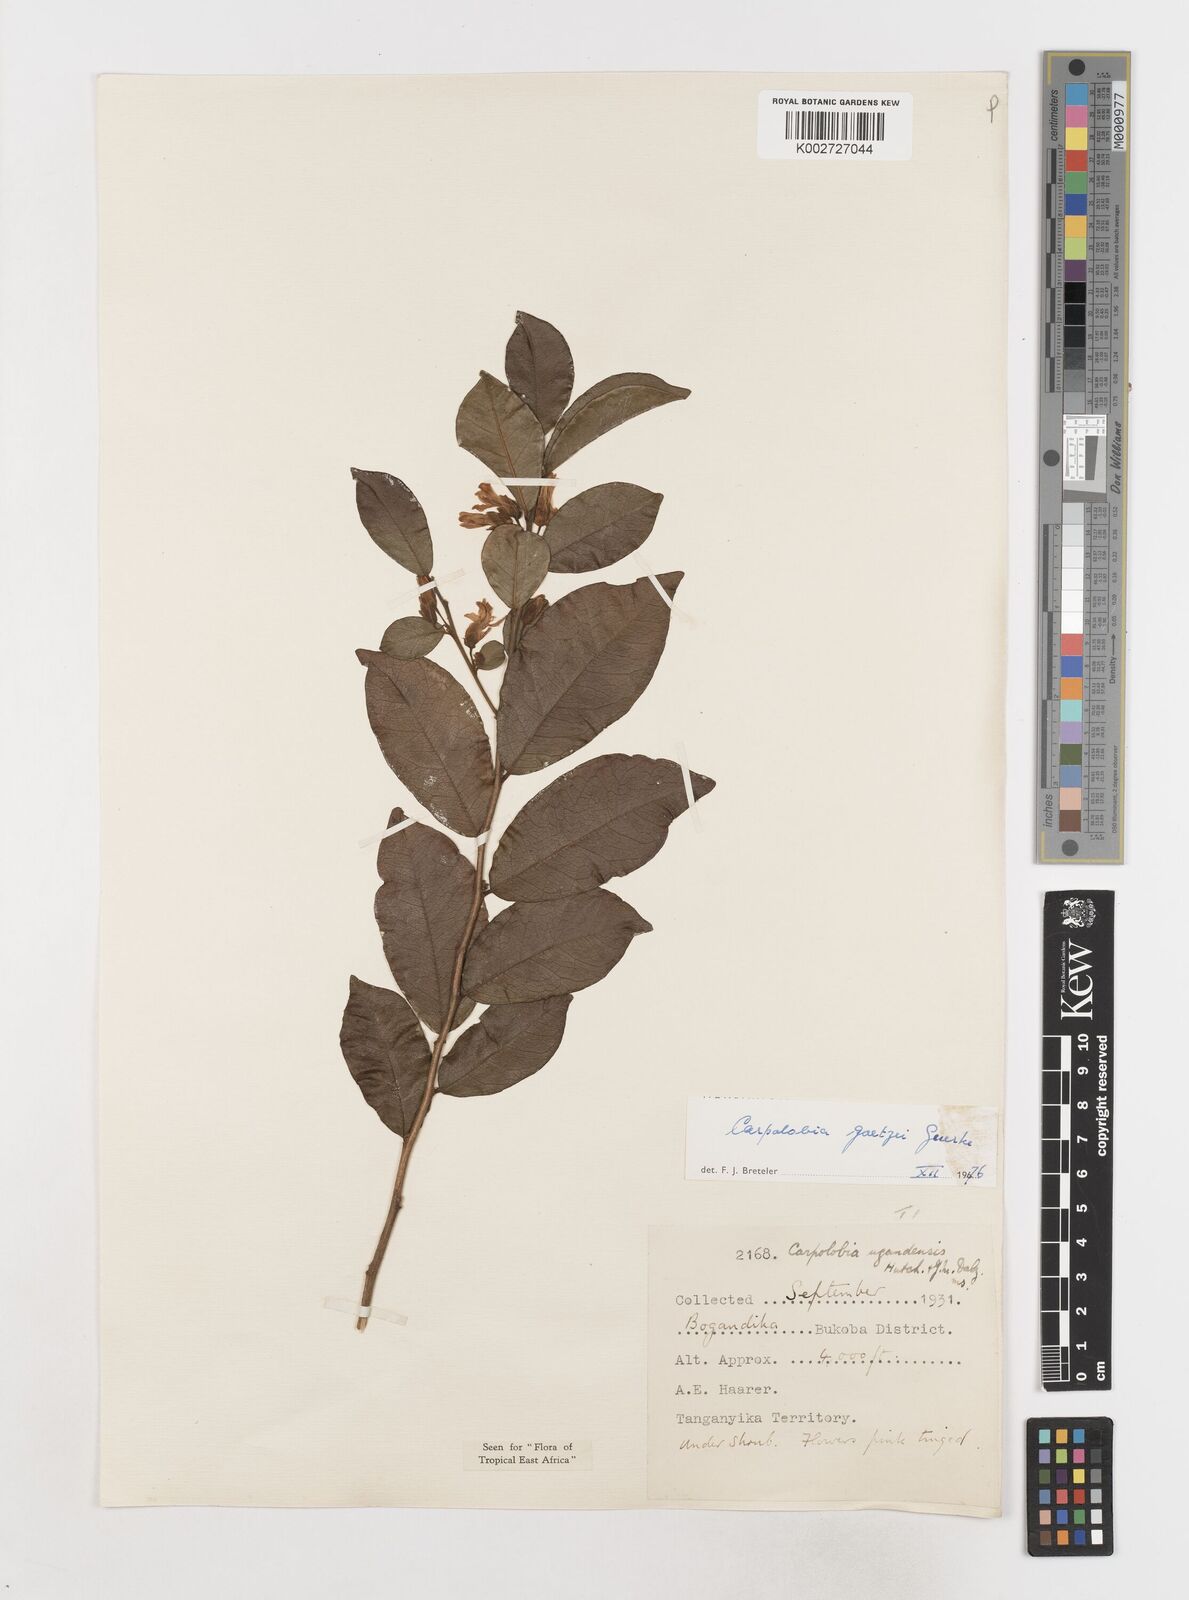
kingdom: Plantae
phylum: Tracheophyta
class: Magnoliopsida
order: Fabales
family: Polygalaceae
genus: Carpolobia
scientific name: Carpolobia goetzei
